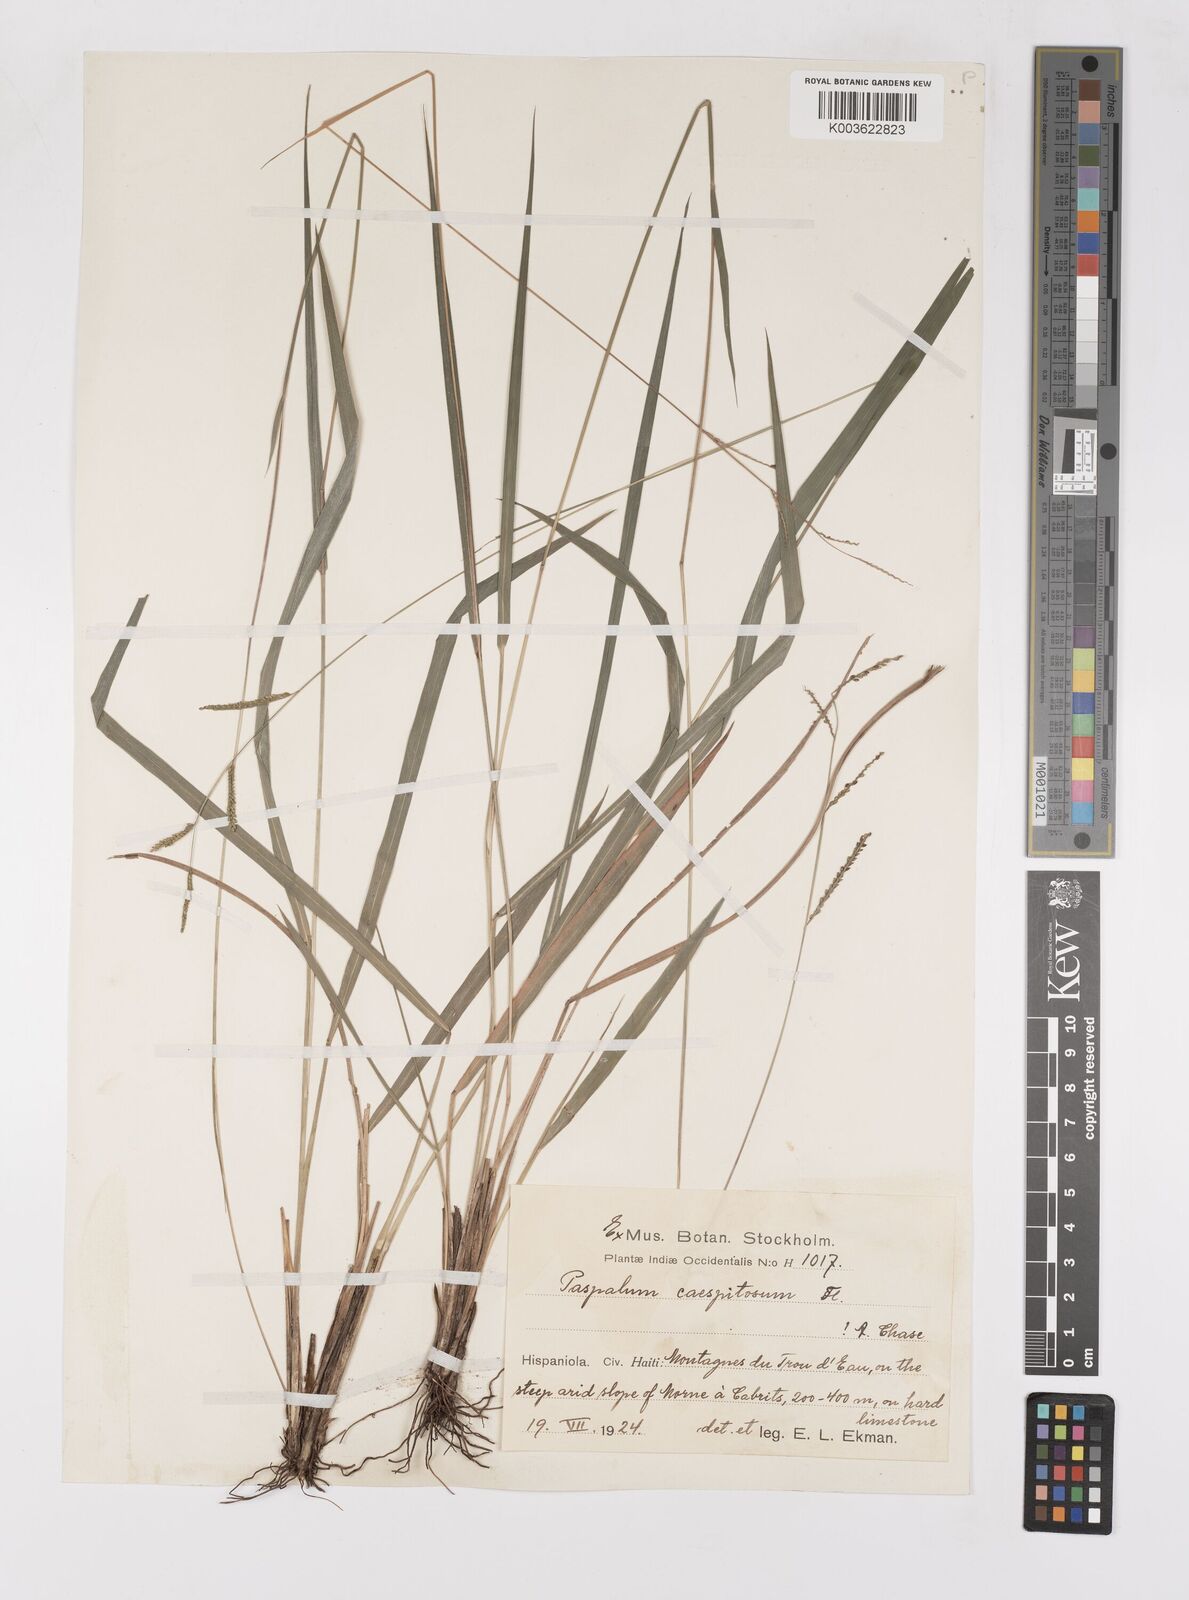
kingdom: Plantae
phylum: Tracheophyta
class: Liliopsida
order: Poales
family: Poaceae
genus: Paspalum
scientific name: Paspalum caespitosum
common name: Blue crowngrass
